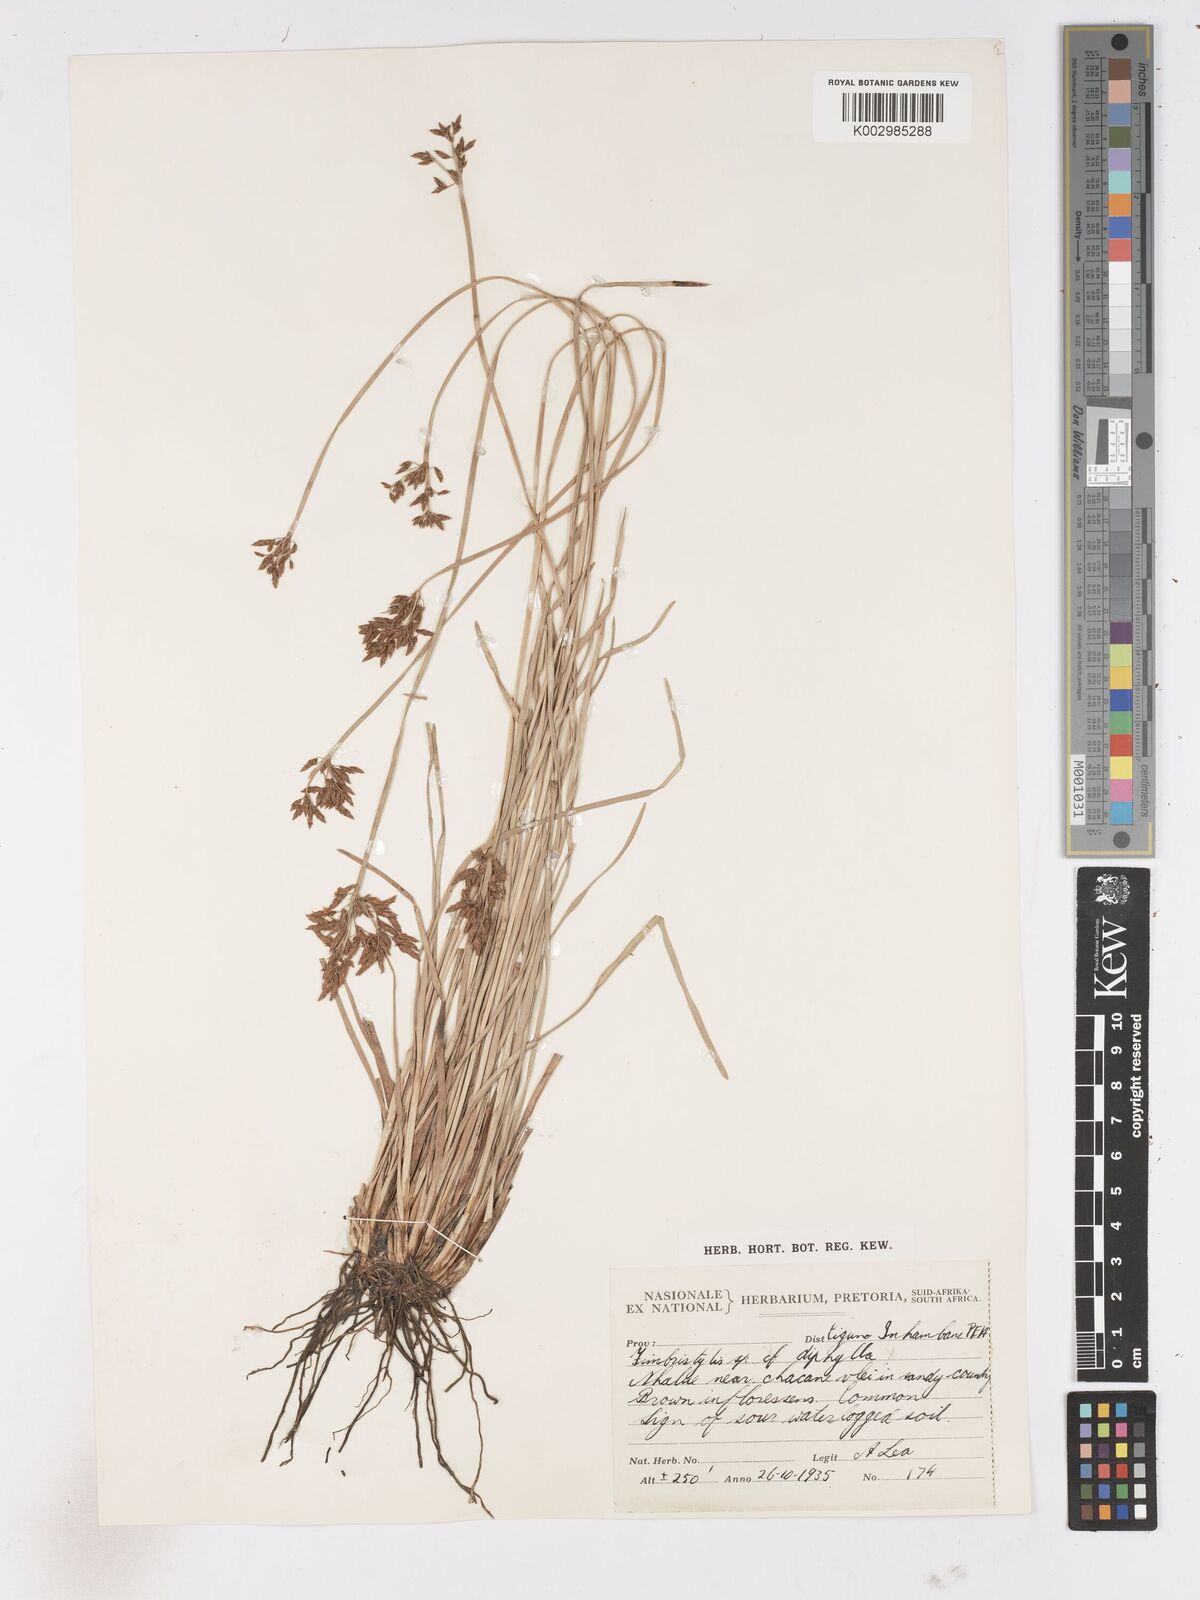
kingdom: Plantae
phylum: Tracheophyta
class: Liliopsida
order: Poales
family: Cyperaceae
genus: Fimbristylis
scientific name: Fimbristylis complanata
